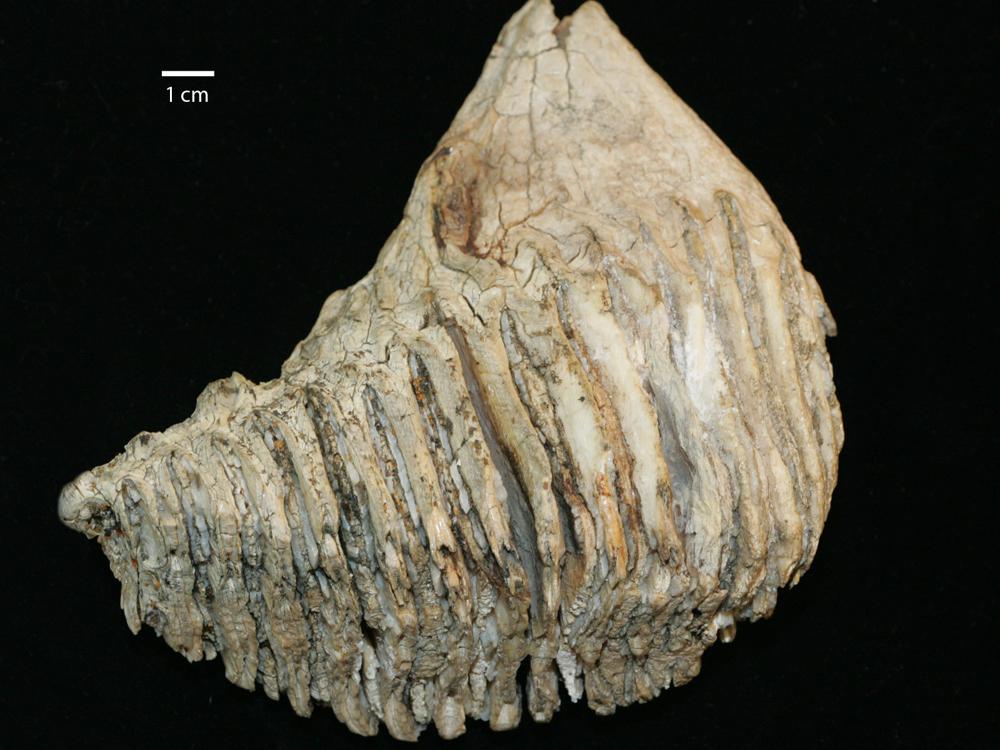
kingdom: Animalia
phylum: Chordata
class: Mammalia
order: Proboscidea
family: Elephantidae
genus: Mammuthus
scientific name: Mammuthus
